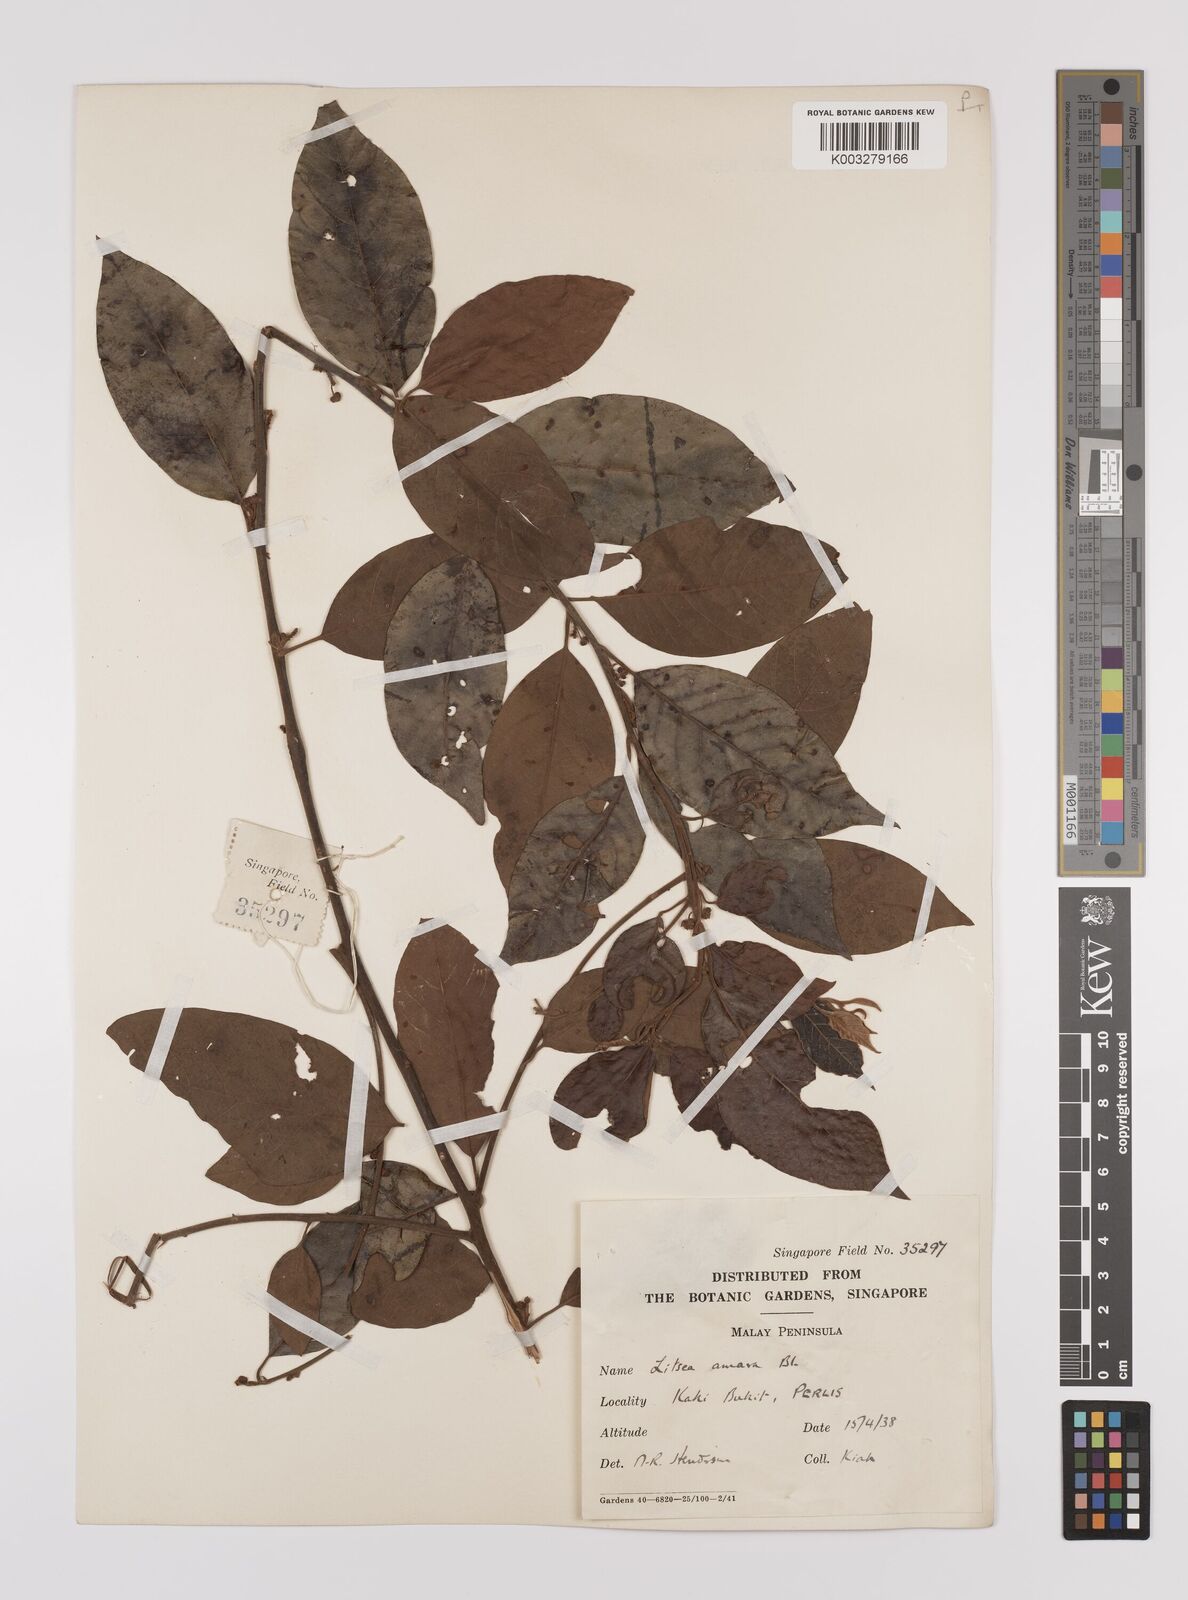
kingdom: Plantae
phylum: Tracheophyta
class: Magnoliopsida
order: Laurales
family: Lauraceae
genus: Litsea
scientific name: Litsea umbellata
